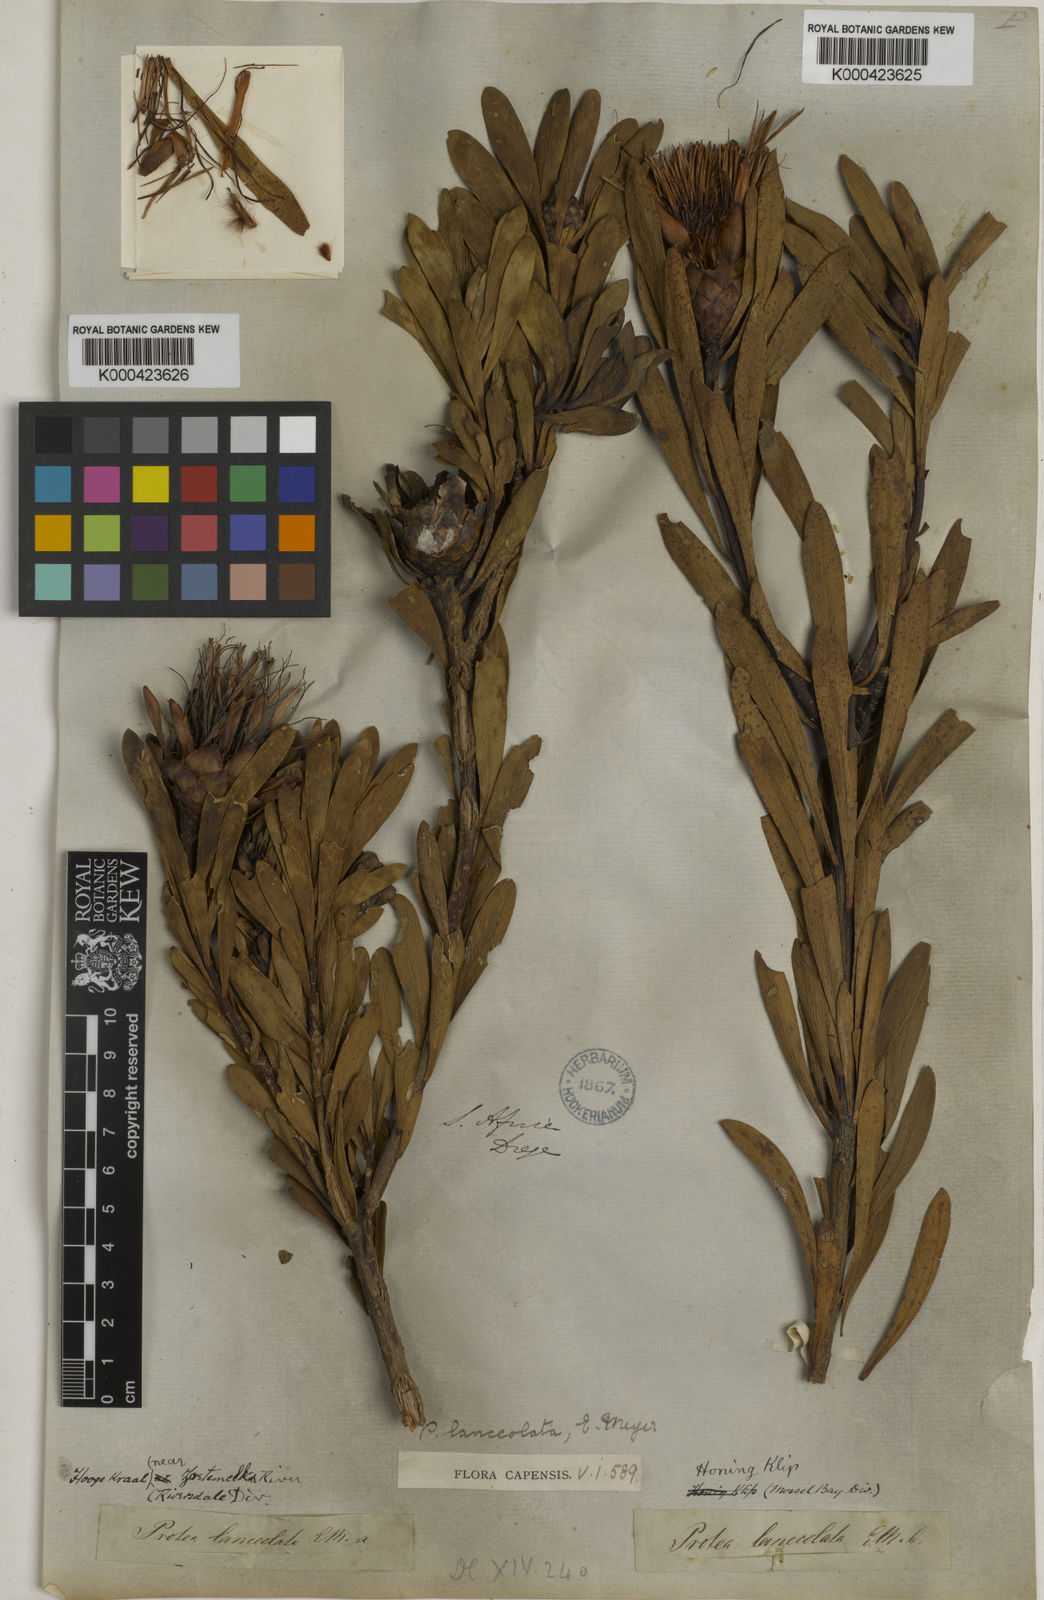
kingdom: Plantae
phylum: Tracheophyta
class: Magnoliopsida
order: Proteales
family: Proteaceae
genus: Protea
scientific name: Protea lanceolata
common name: Lance-leaved protea
